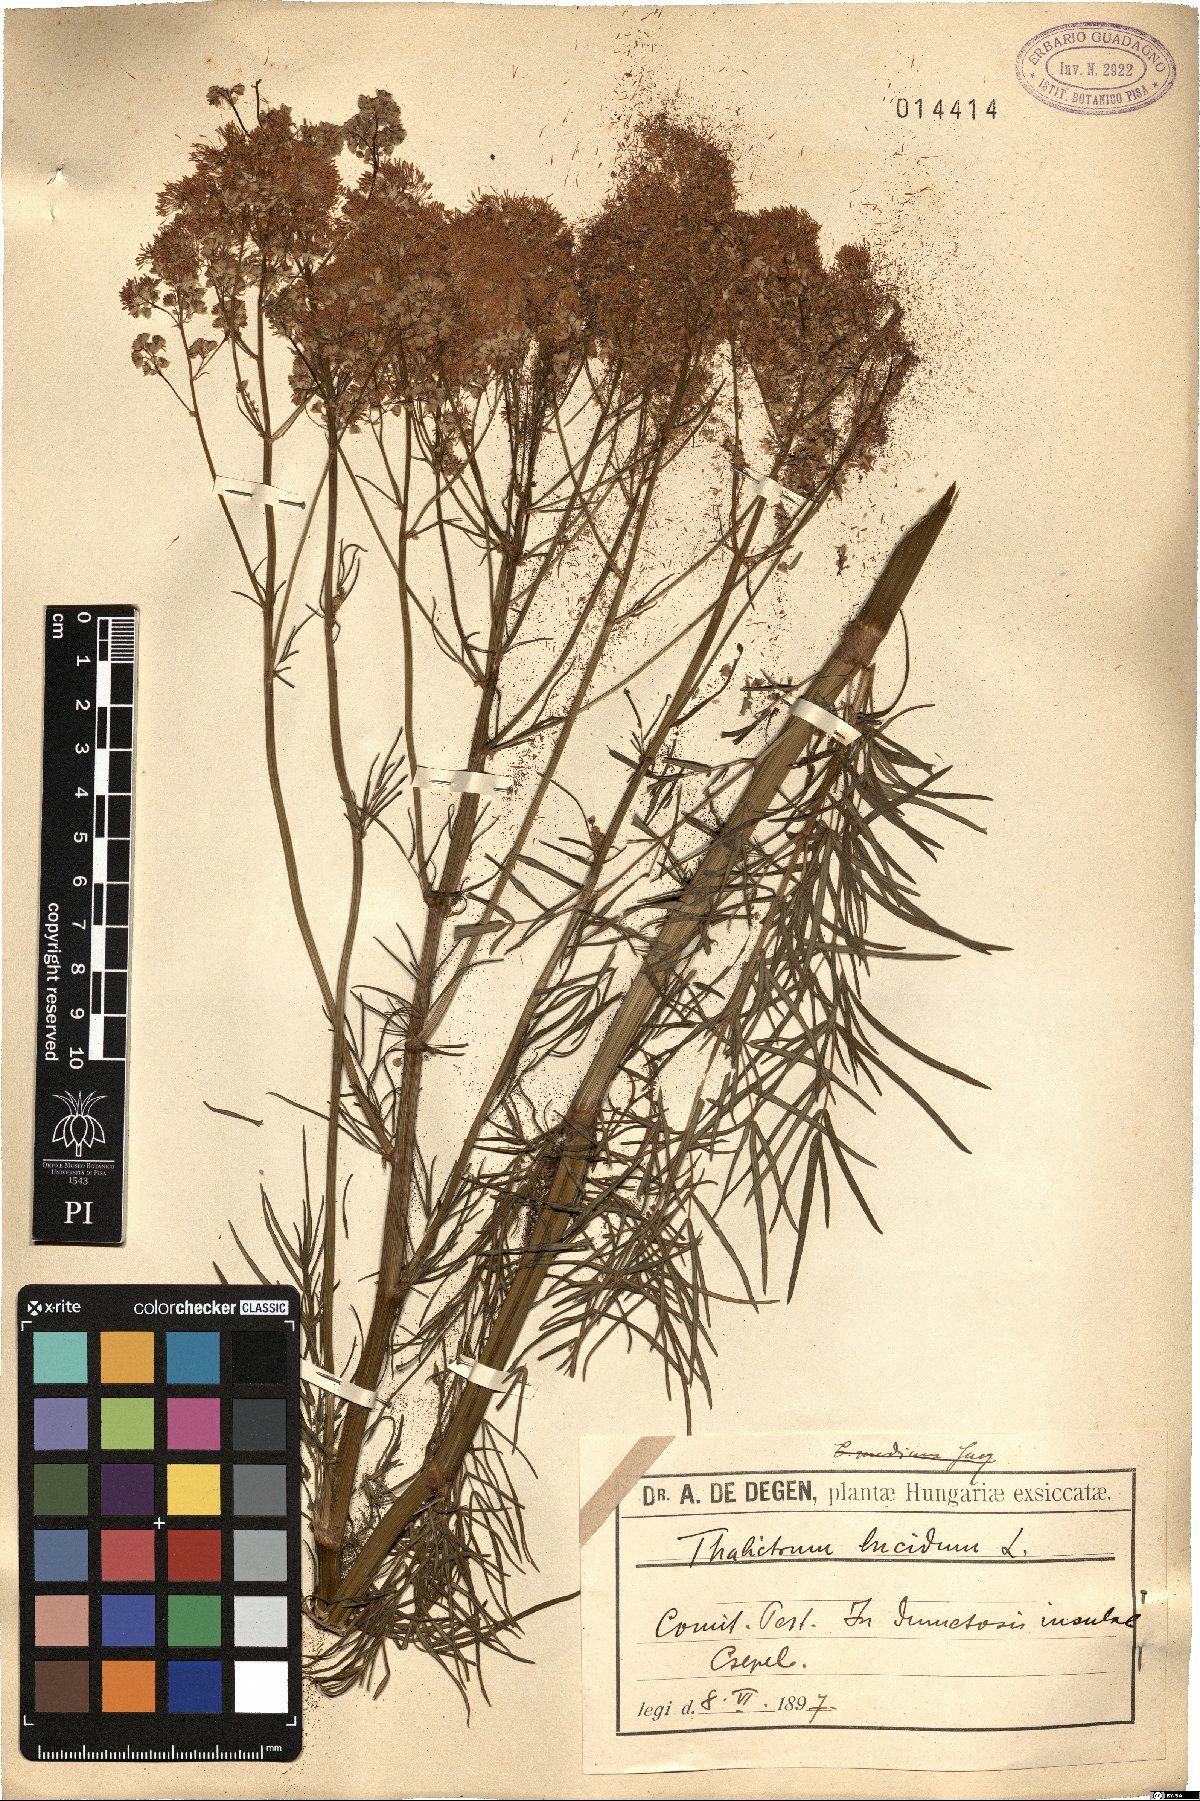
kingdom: Plantae
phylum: Tracheophyta
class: Magnoliopsida
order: Ranunculales
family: Ranunculaceae
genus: Thalictrum
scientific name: Thalictrum lucidum
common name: Shining meadow-rue
